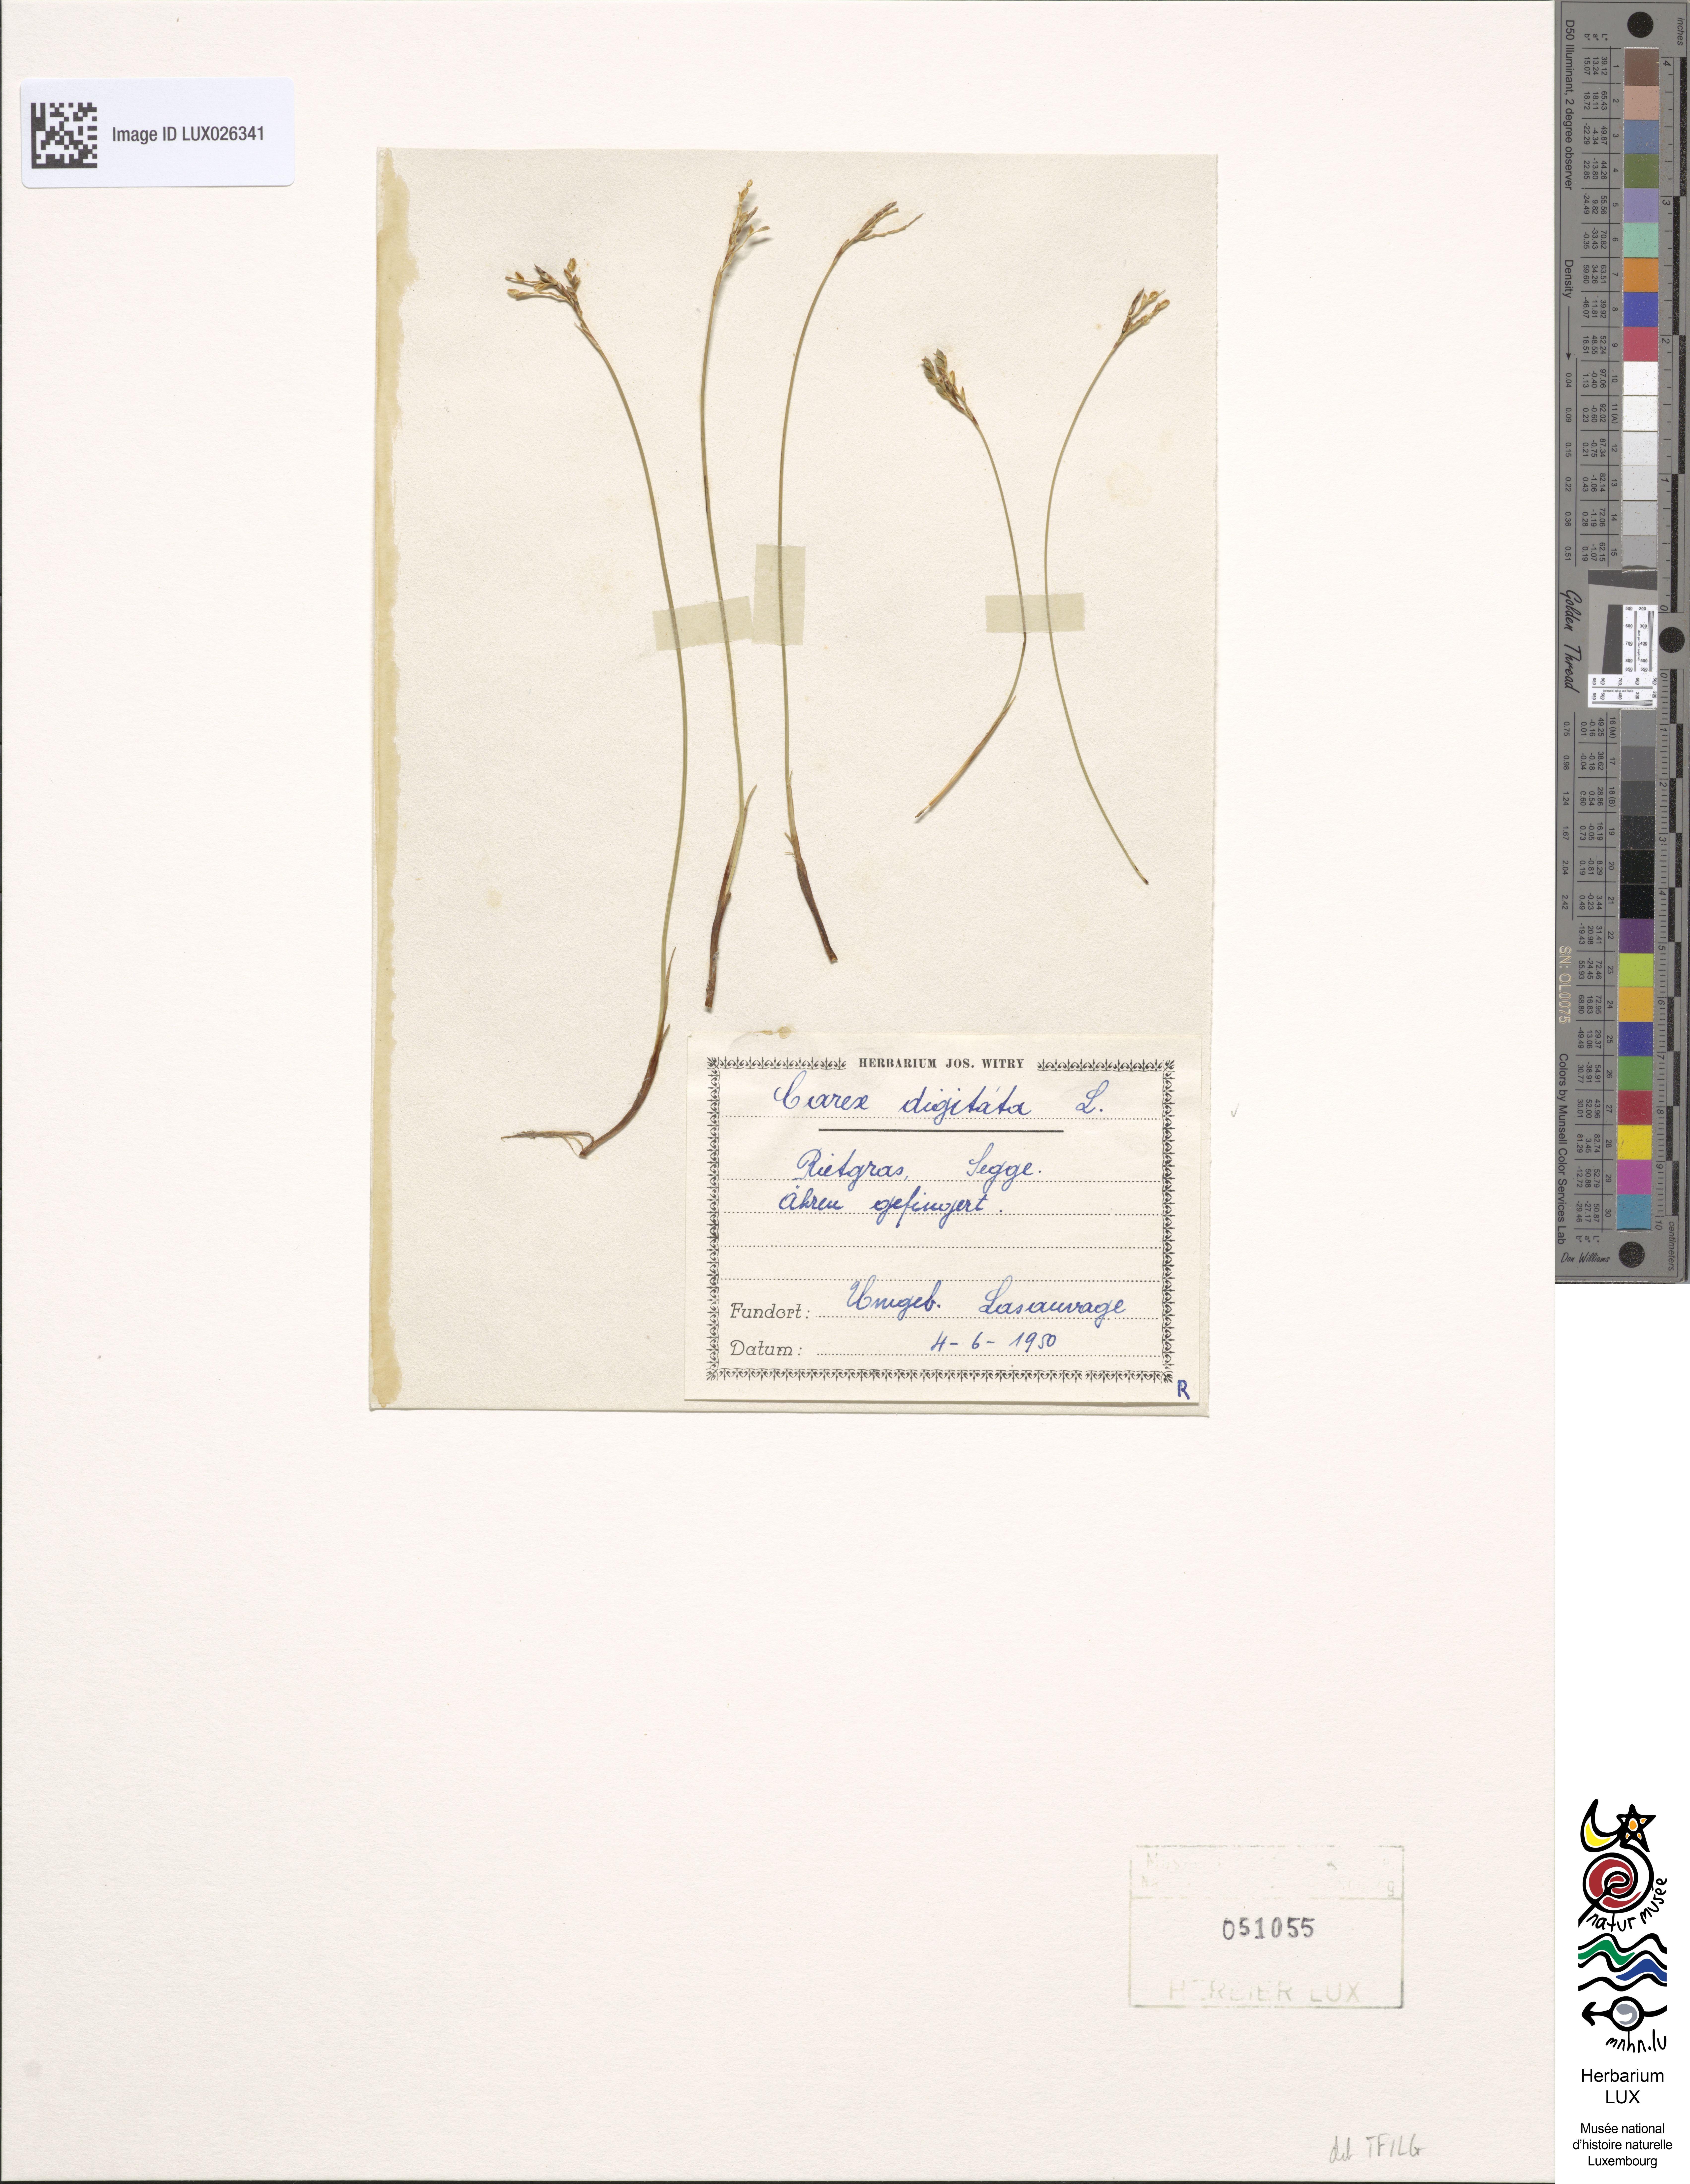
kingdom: Plantae
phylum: Tracheophyta
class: Liliopsida
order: Poales
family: Cyperaceae
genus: Carex
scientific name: Carex digitata
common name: Fingered sedge
